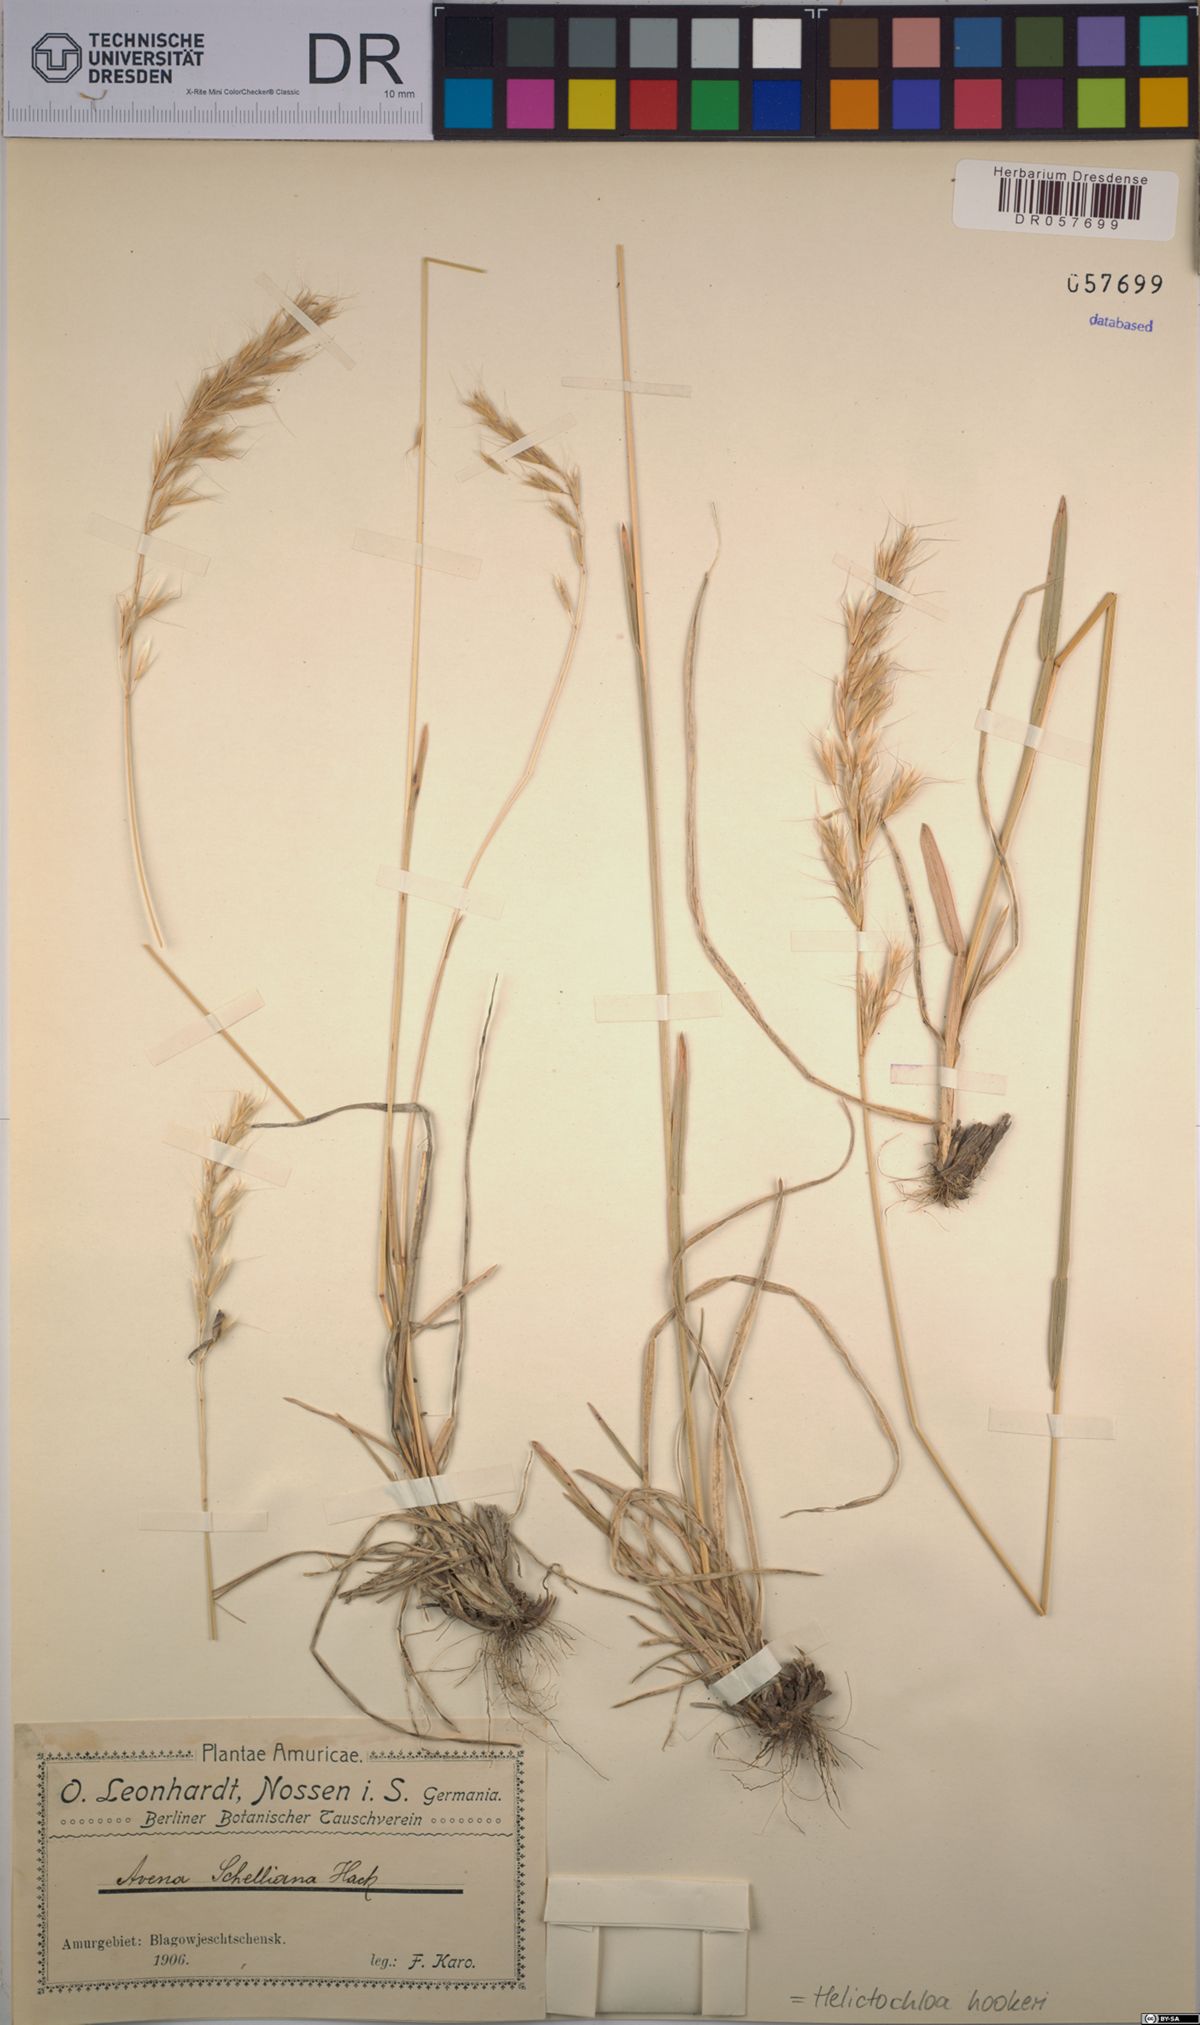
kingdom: Plantae
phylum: Tracheophyta
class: Liliopsida
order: Poales
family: Poaceae
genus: Helictochloa
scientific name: Helictochloa hookeri
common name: Hooker's alpine oatgrass
